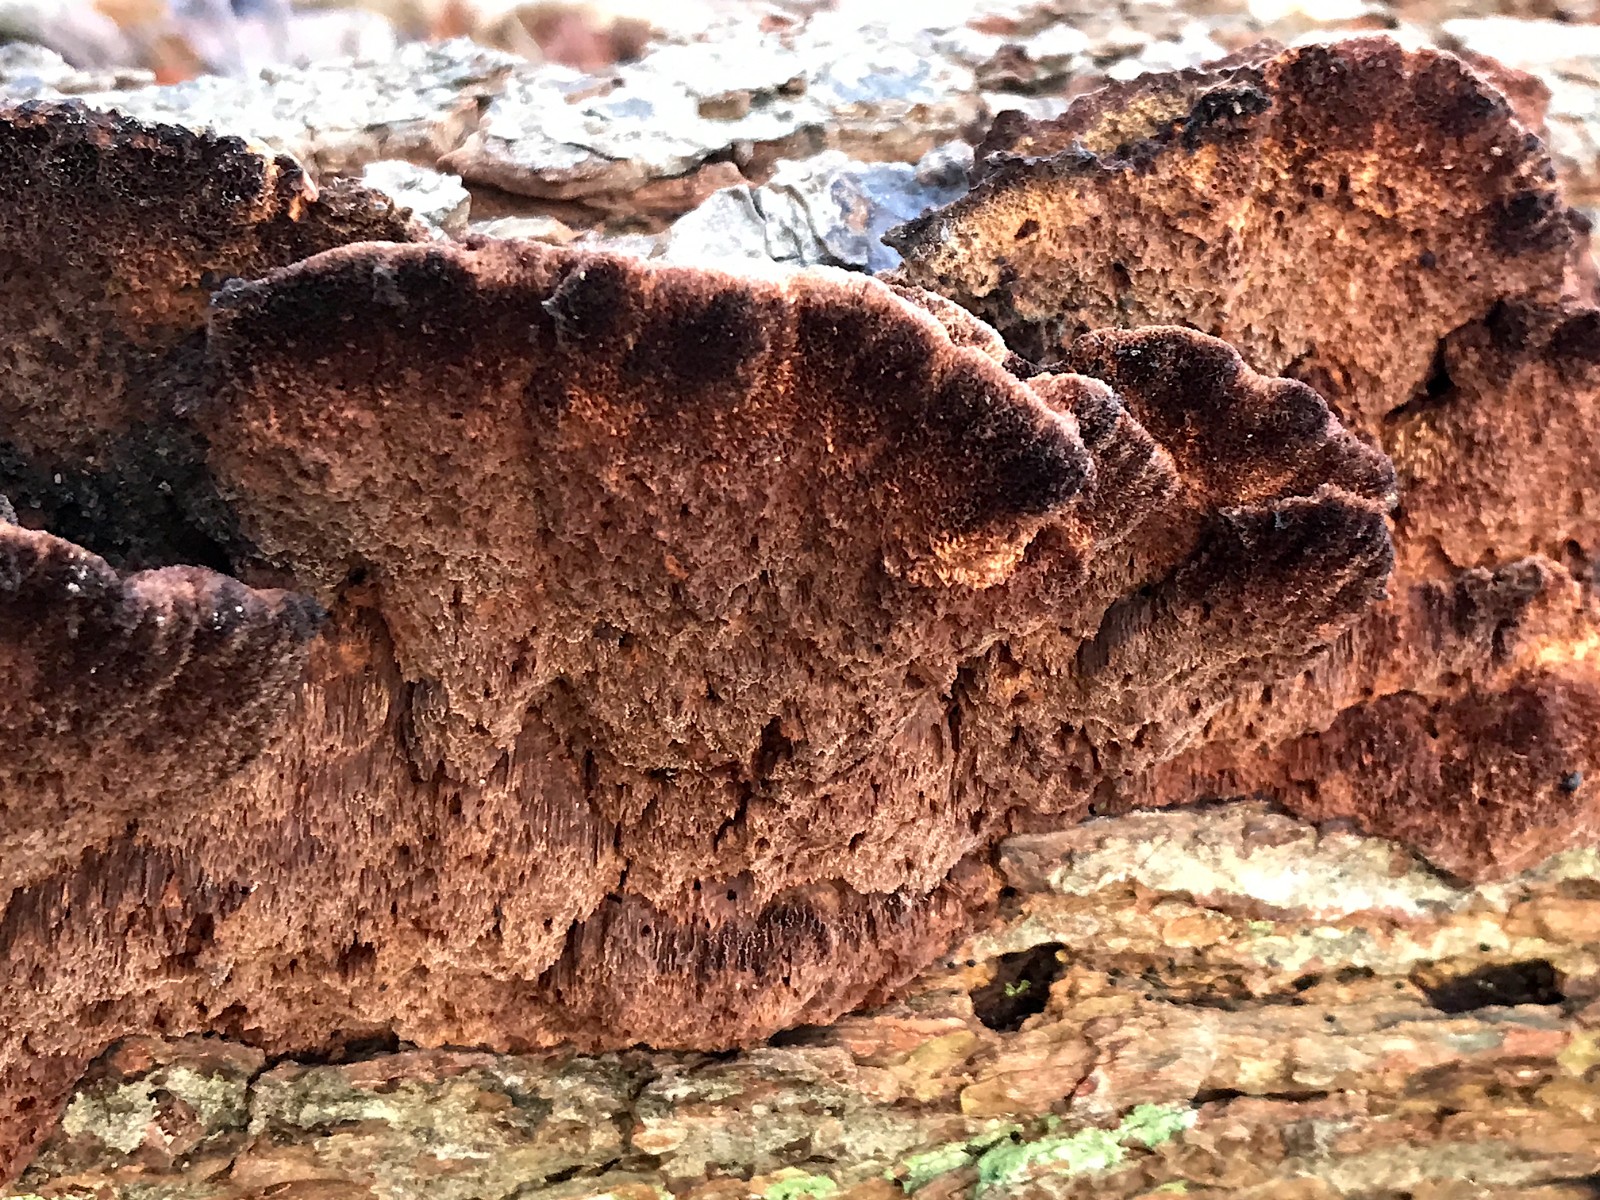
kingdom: Fungi
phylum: Basidiomycota
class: Agaricomycetes
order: Hymenochaetales
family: Hymenochaetaceae
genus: Xanthoporia
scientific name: Xanthoporia radiata
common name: elle-spejlporesvamp
